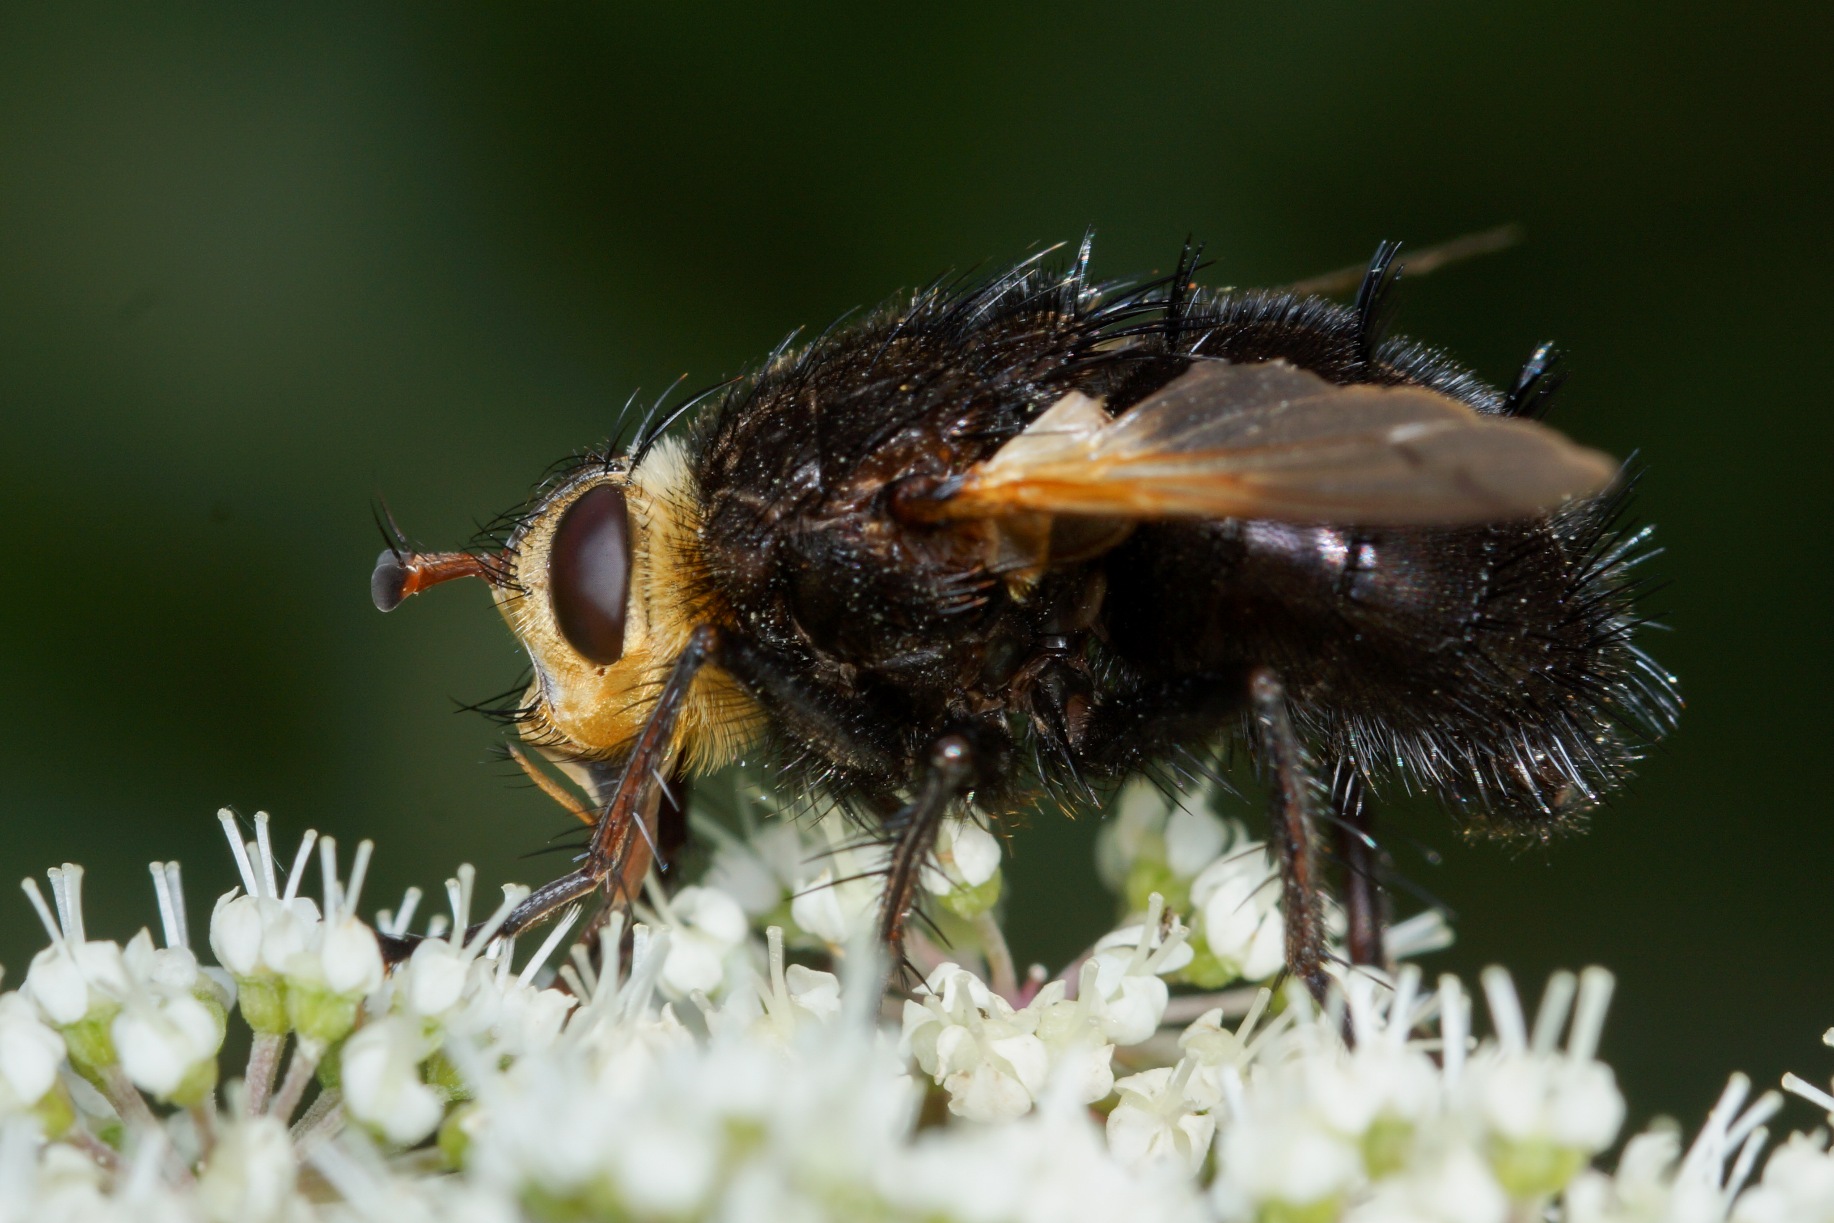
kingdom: Animalia
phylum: Arthropoda
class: Insecta
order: Diptera
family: Tachinidae
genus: Tachina
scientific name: Tachina grossa
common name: Kæmpefluen Harald
